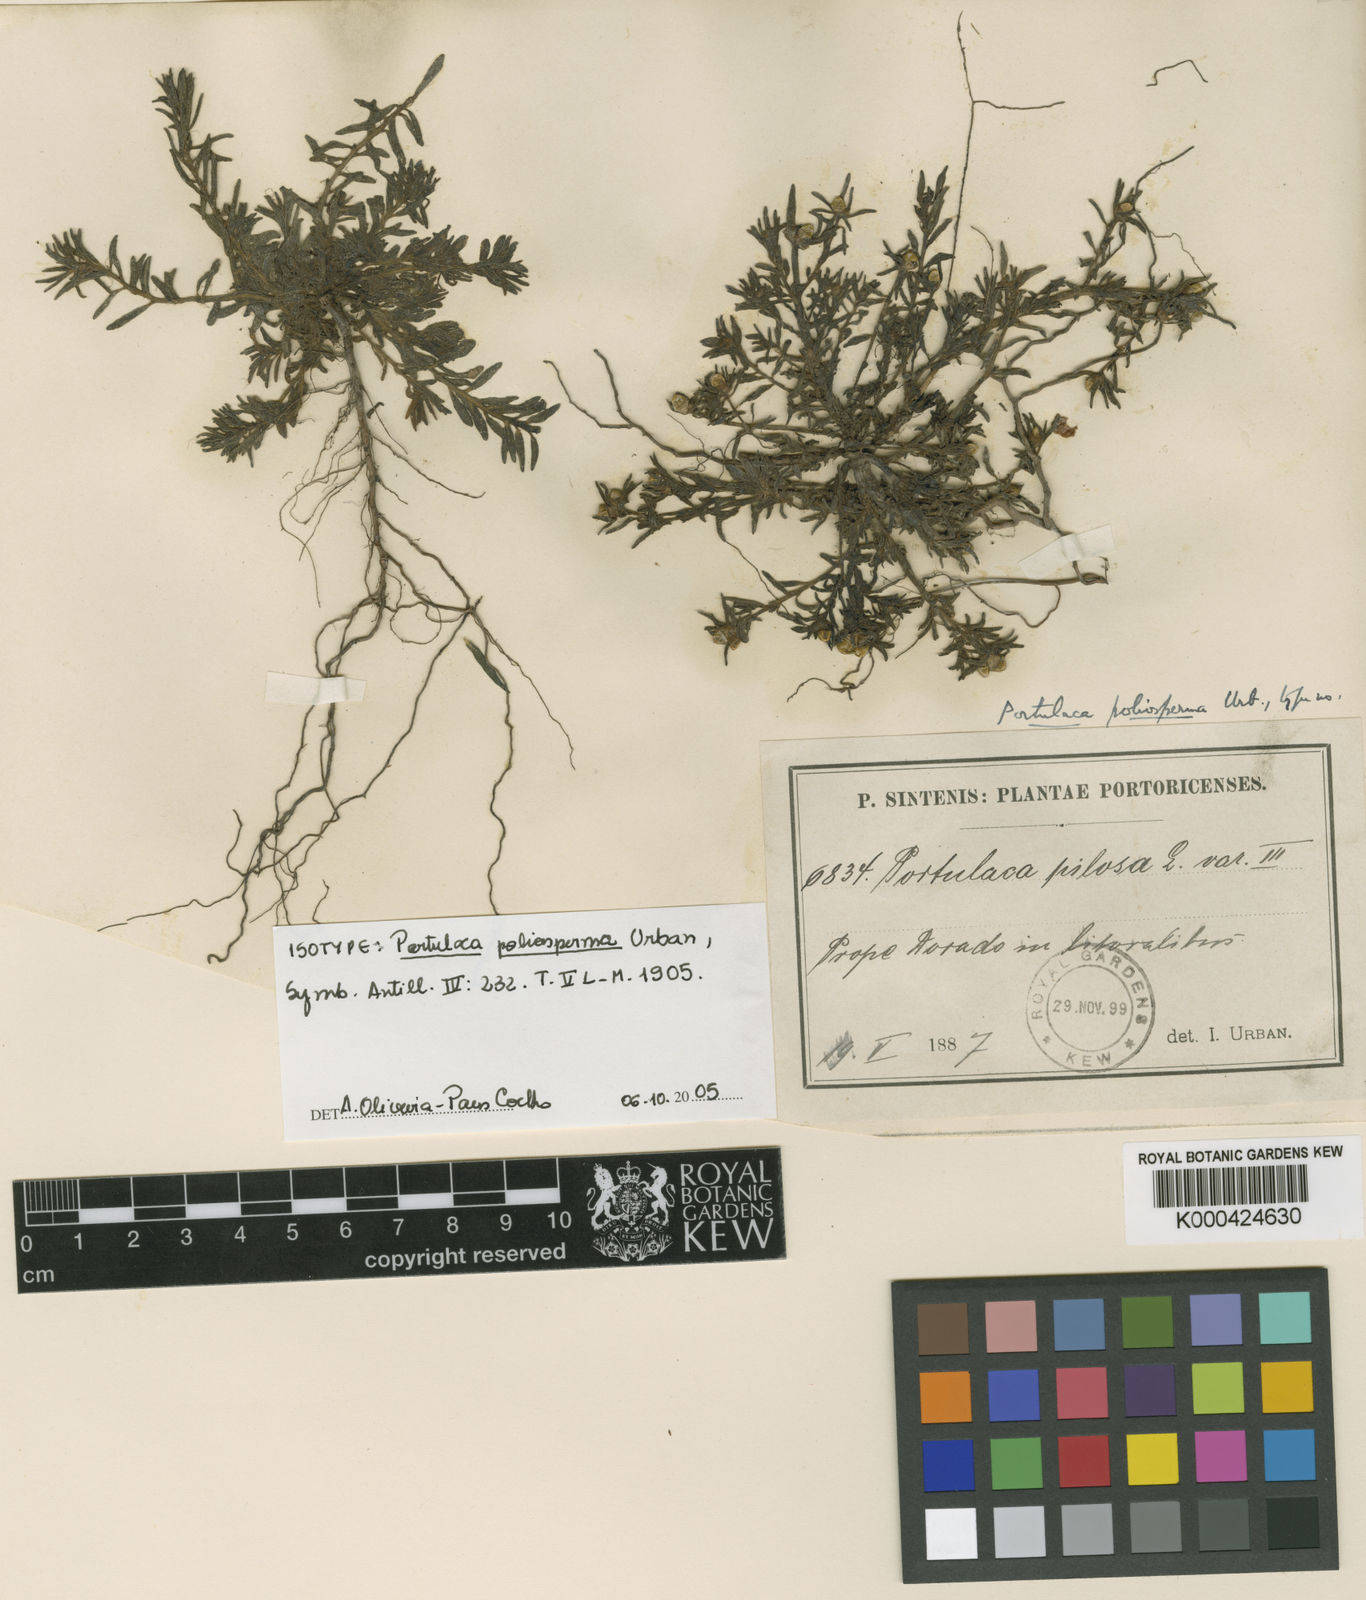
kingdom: Plantae
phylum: Tracheophyta
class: Magnoliopsida
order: Caryophyllales
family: Portulacaceae
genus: Portulaca
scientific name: Portulaca teretifolia
